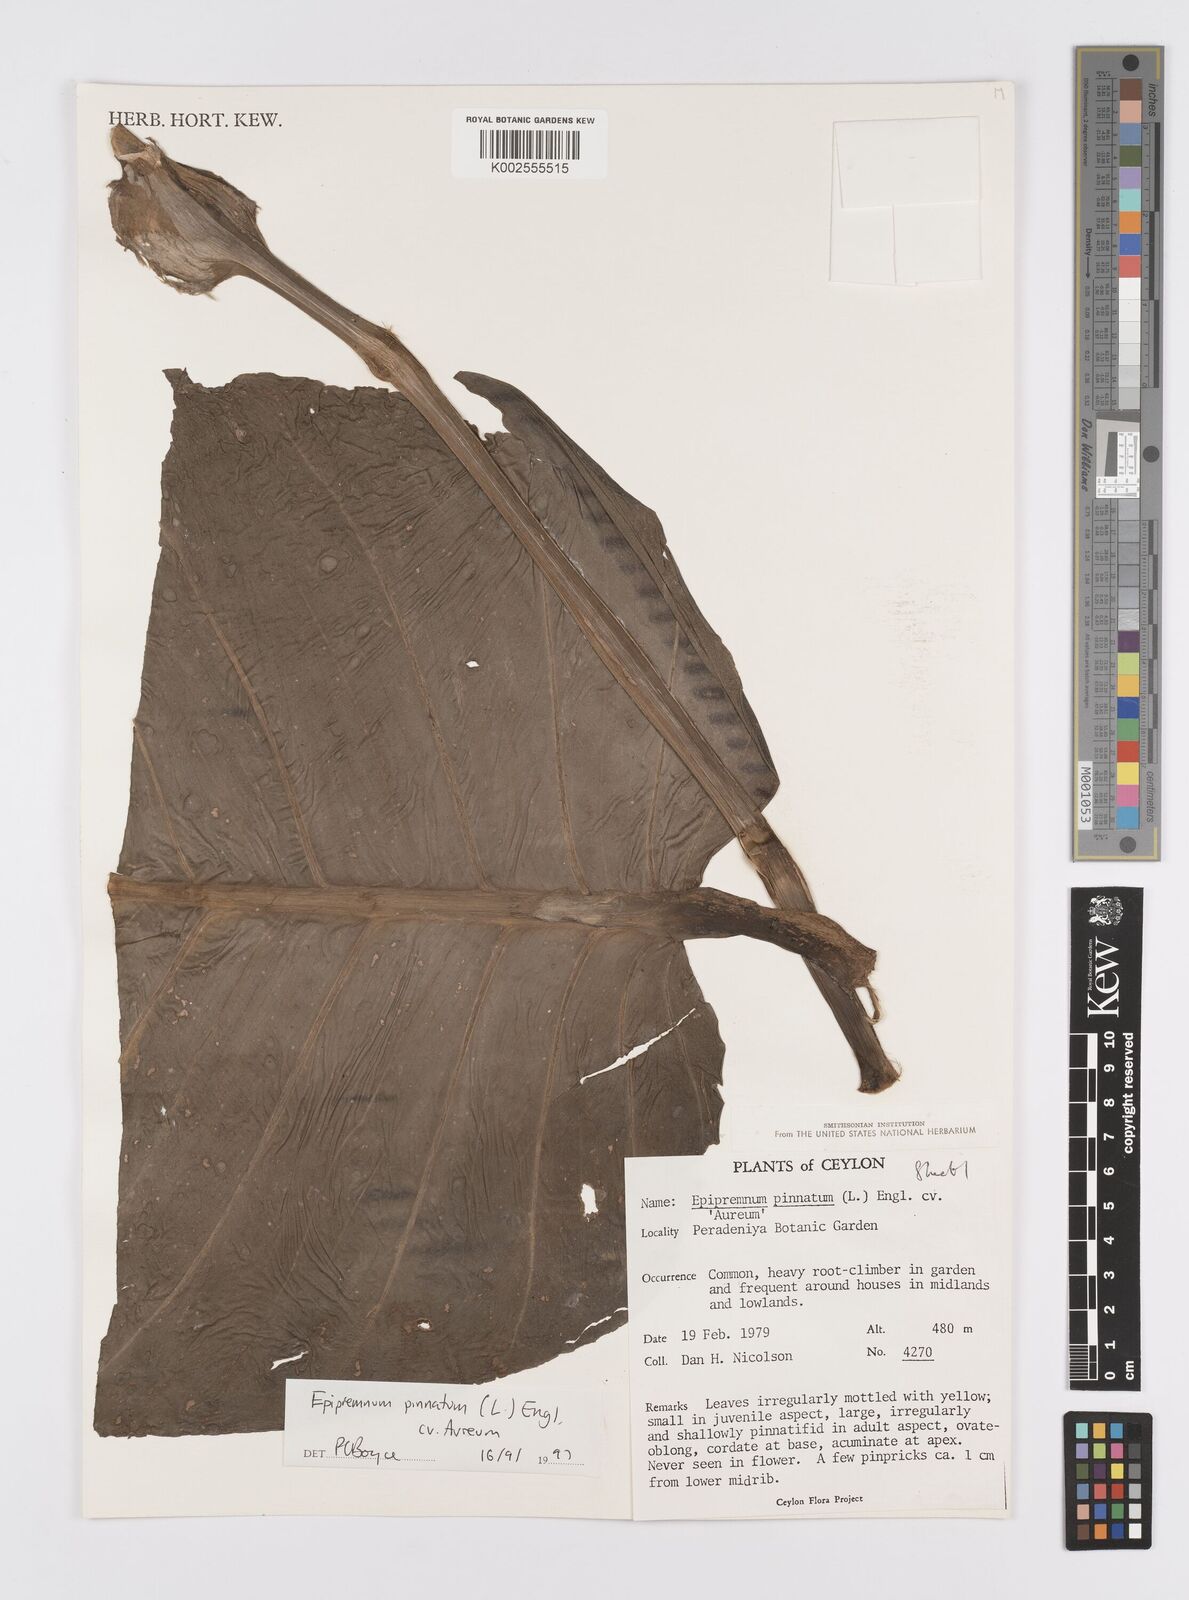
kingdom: Plantae
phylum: Tracheophyta
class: Liliopsida
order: Alismatales
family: Araceae
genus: Epipremnum
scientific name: Epipremnum aureum
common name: Golden hunter's-robe
